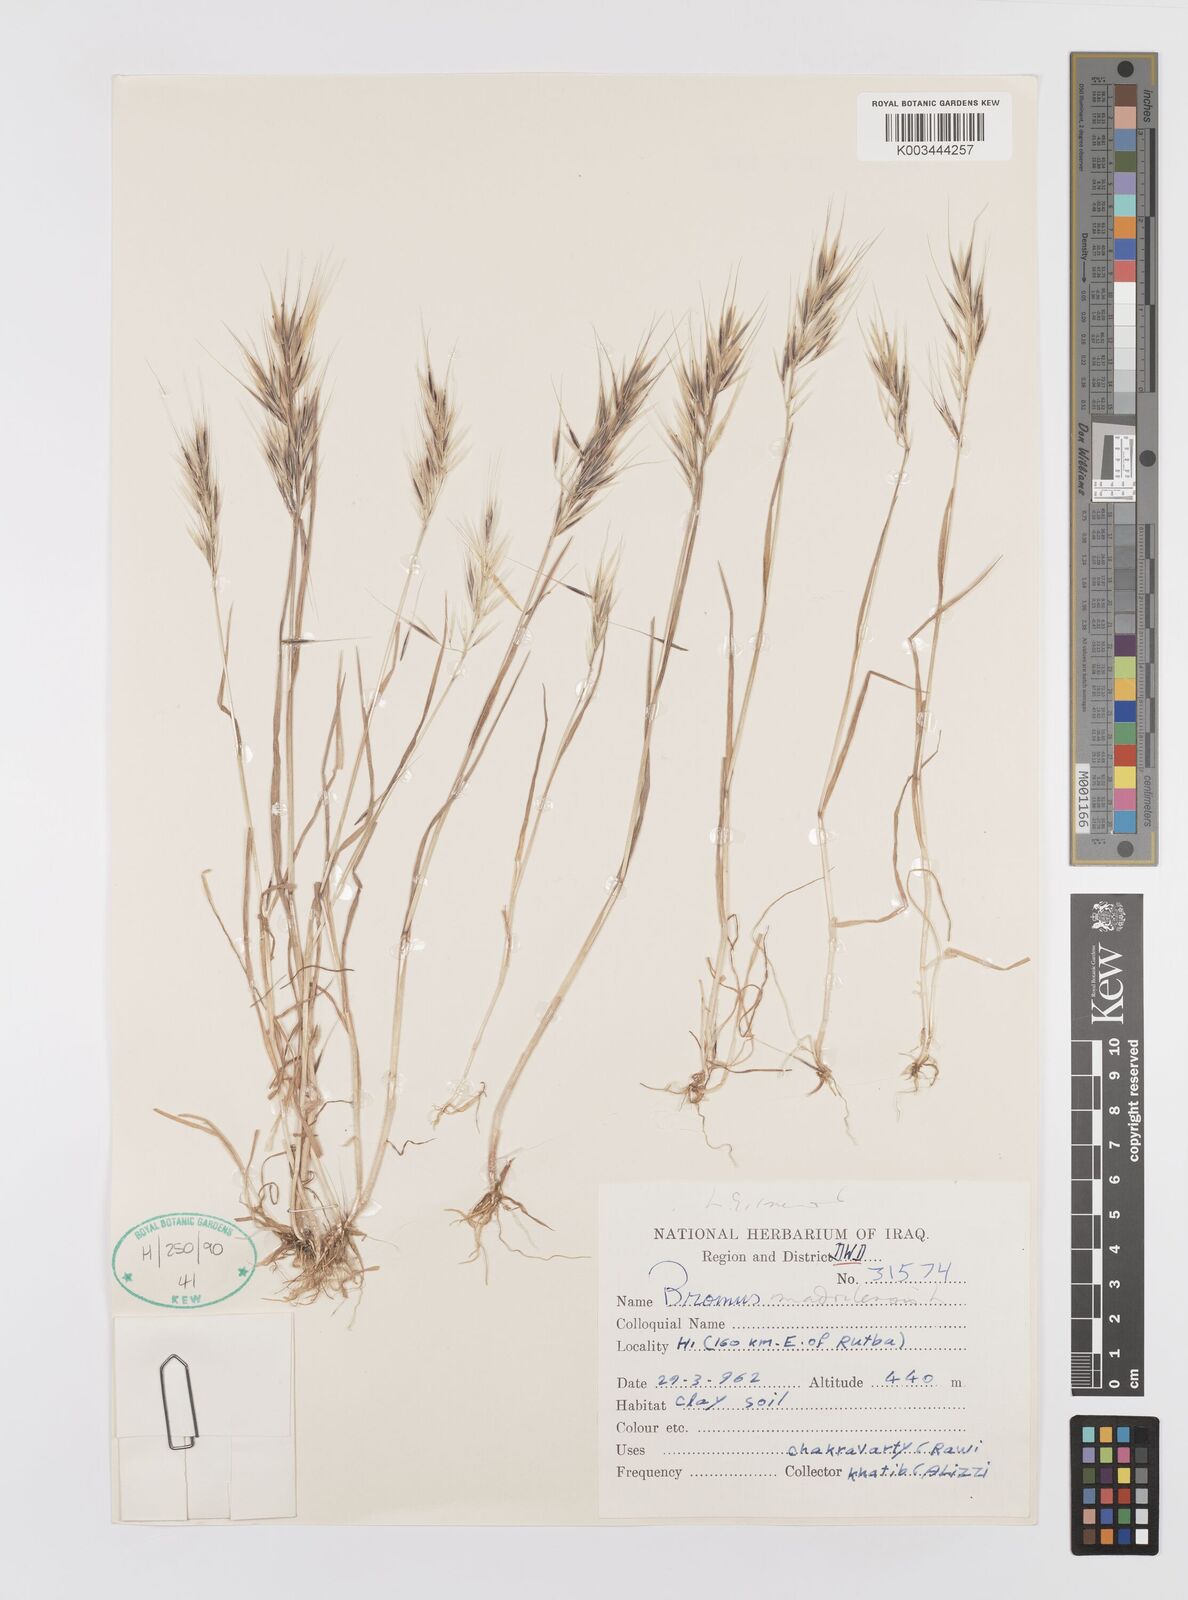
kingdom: Plantae
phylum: Tracheophyta
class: Liliopsida
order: Poales
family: Poaceae
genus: Bromus
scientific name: Bromus madritensis
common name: Compact brome
